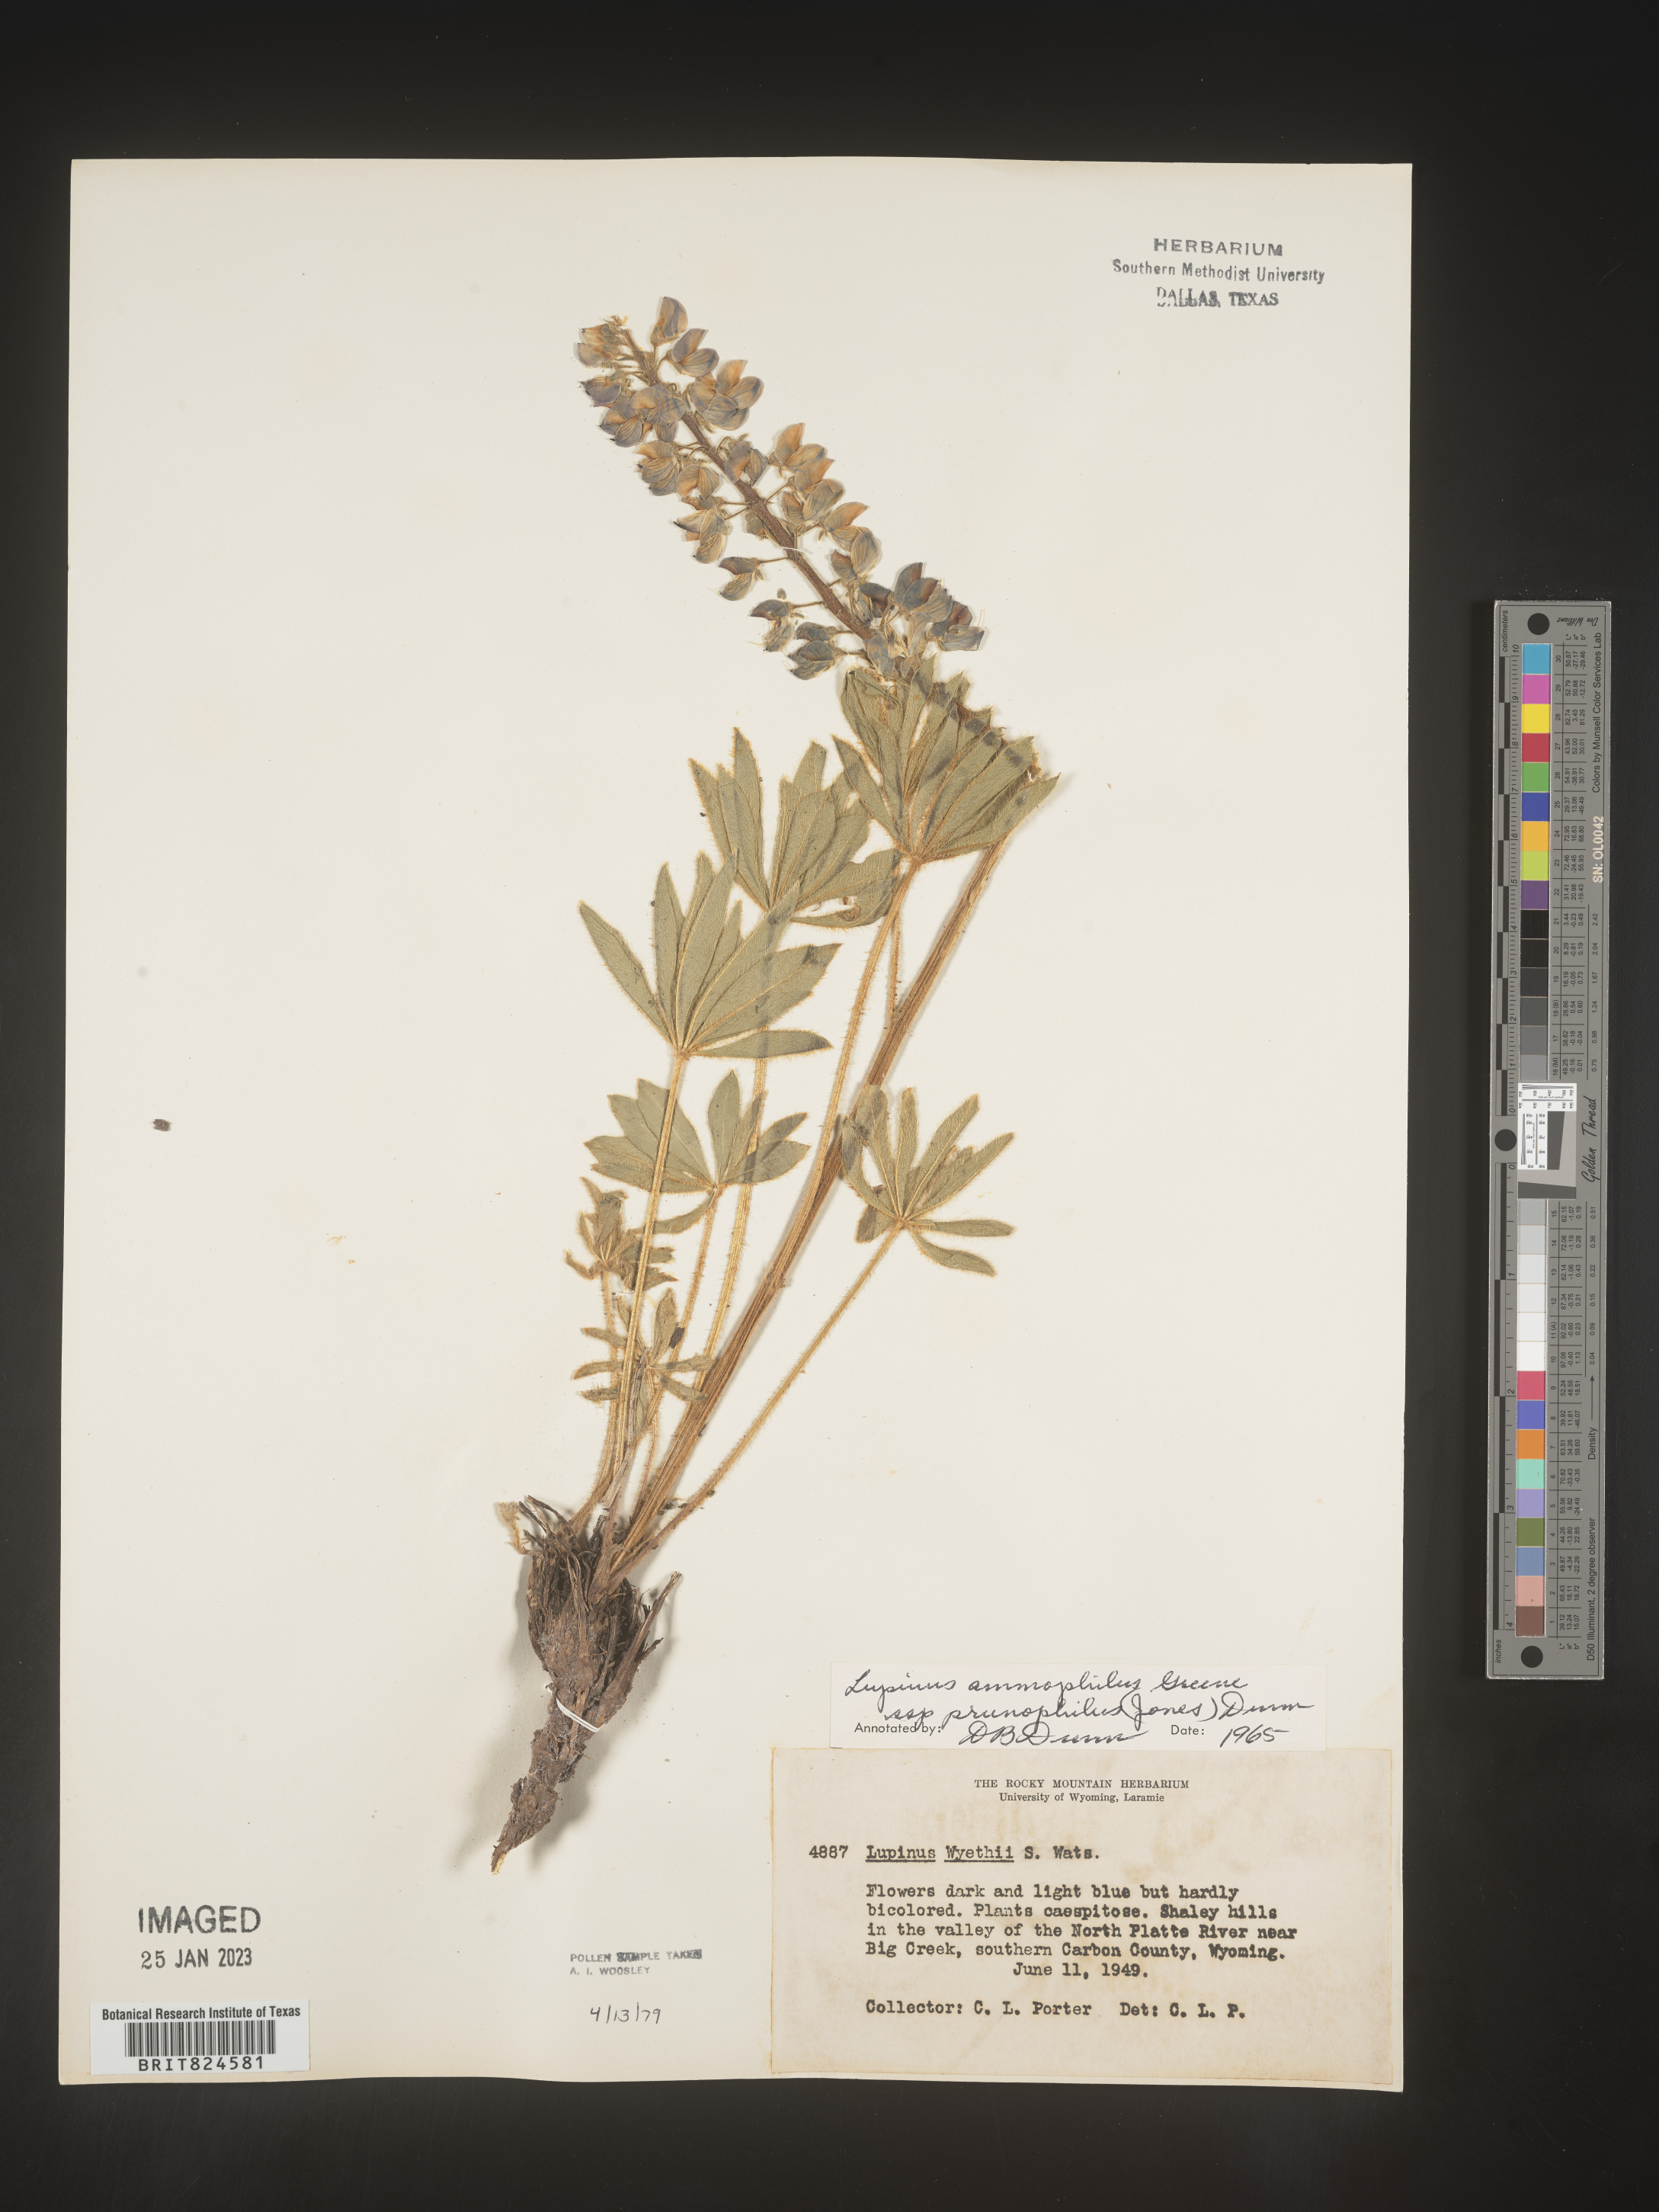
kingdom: Plantae
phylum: Tracheophyta
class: Magnoliopsida
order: Fabales
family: Fabaceae
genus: Lupinus
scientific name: Lupinus
